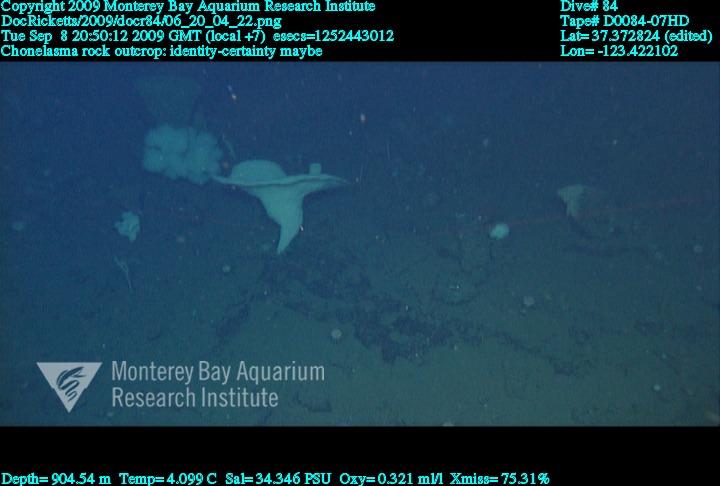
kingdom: Animalia
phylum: Porifera
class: Hexactinellida
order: Sceptrulophora
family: Euretidae
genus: Chonelasma
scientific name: Chonelasma
